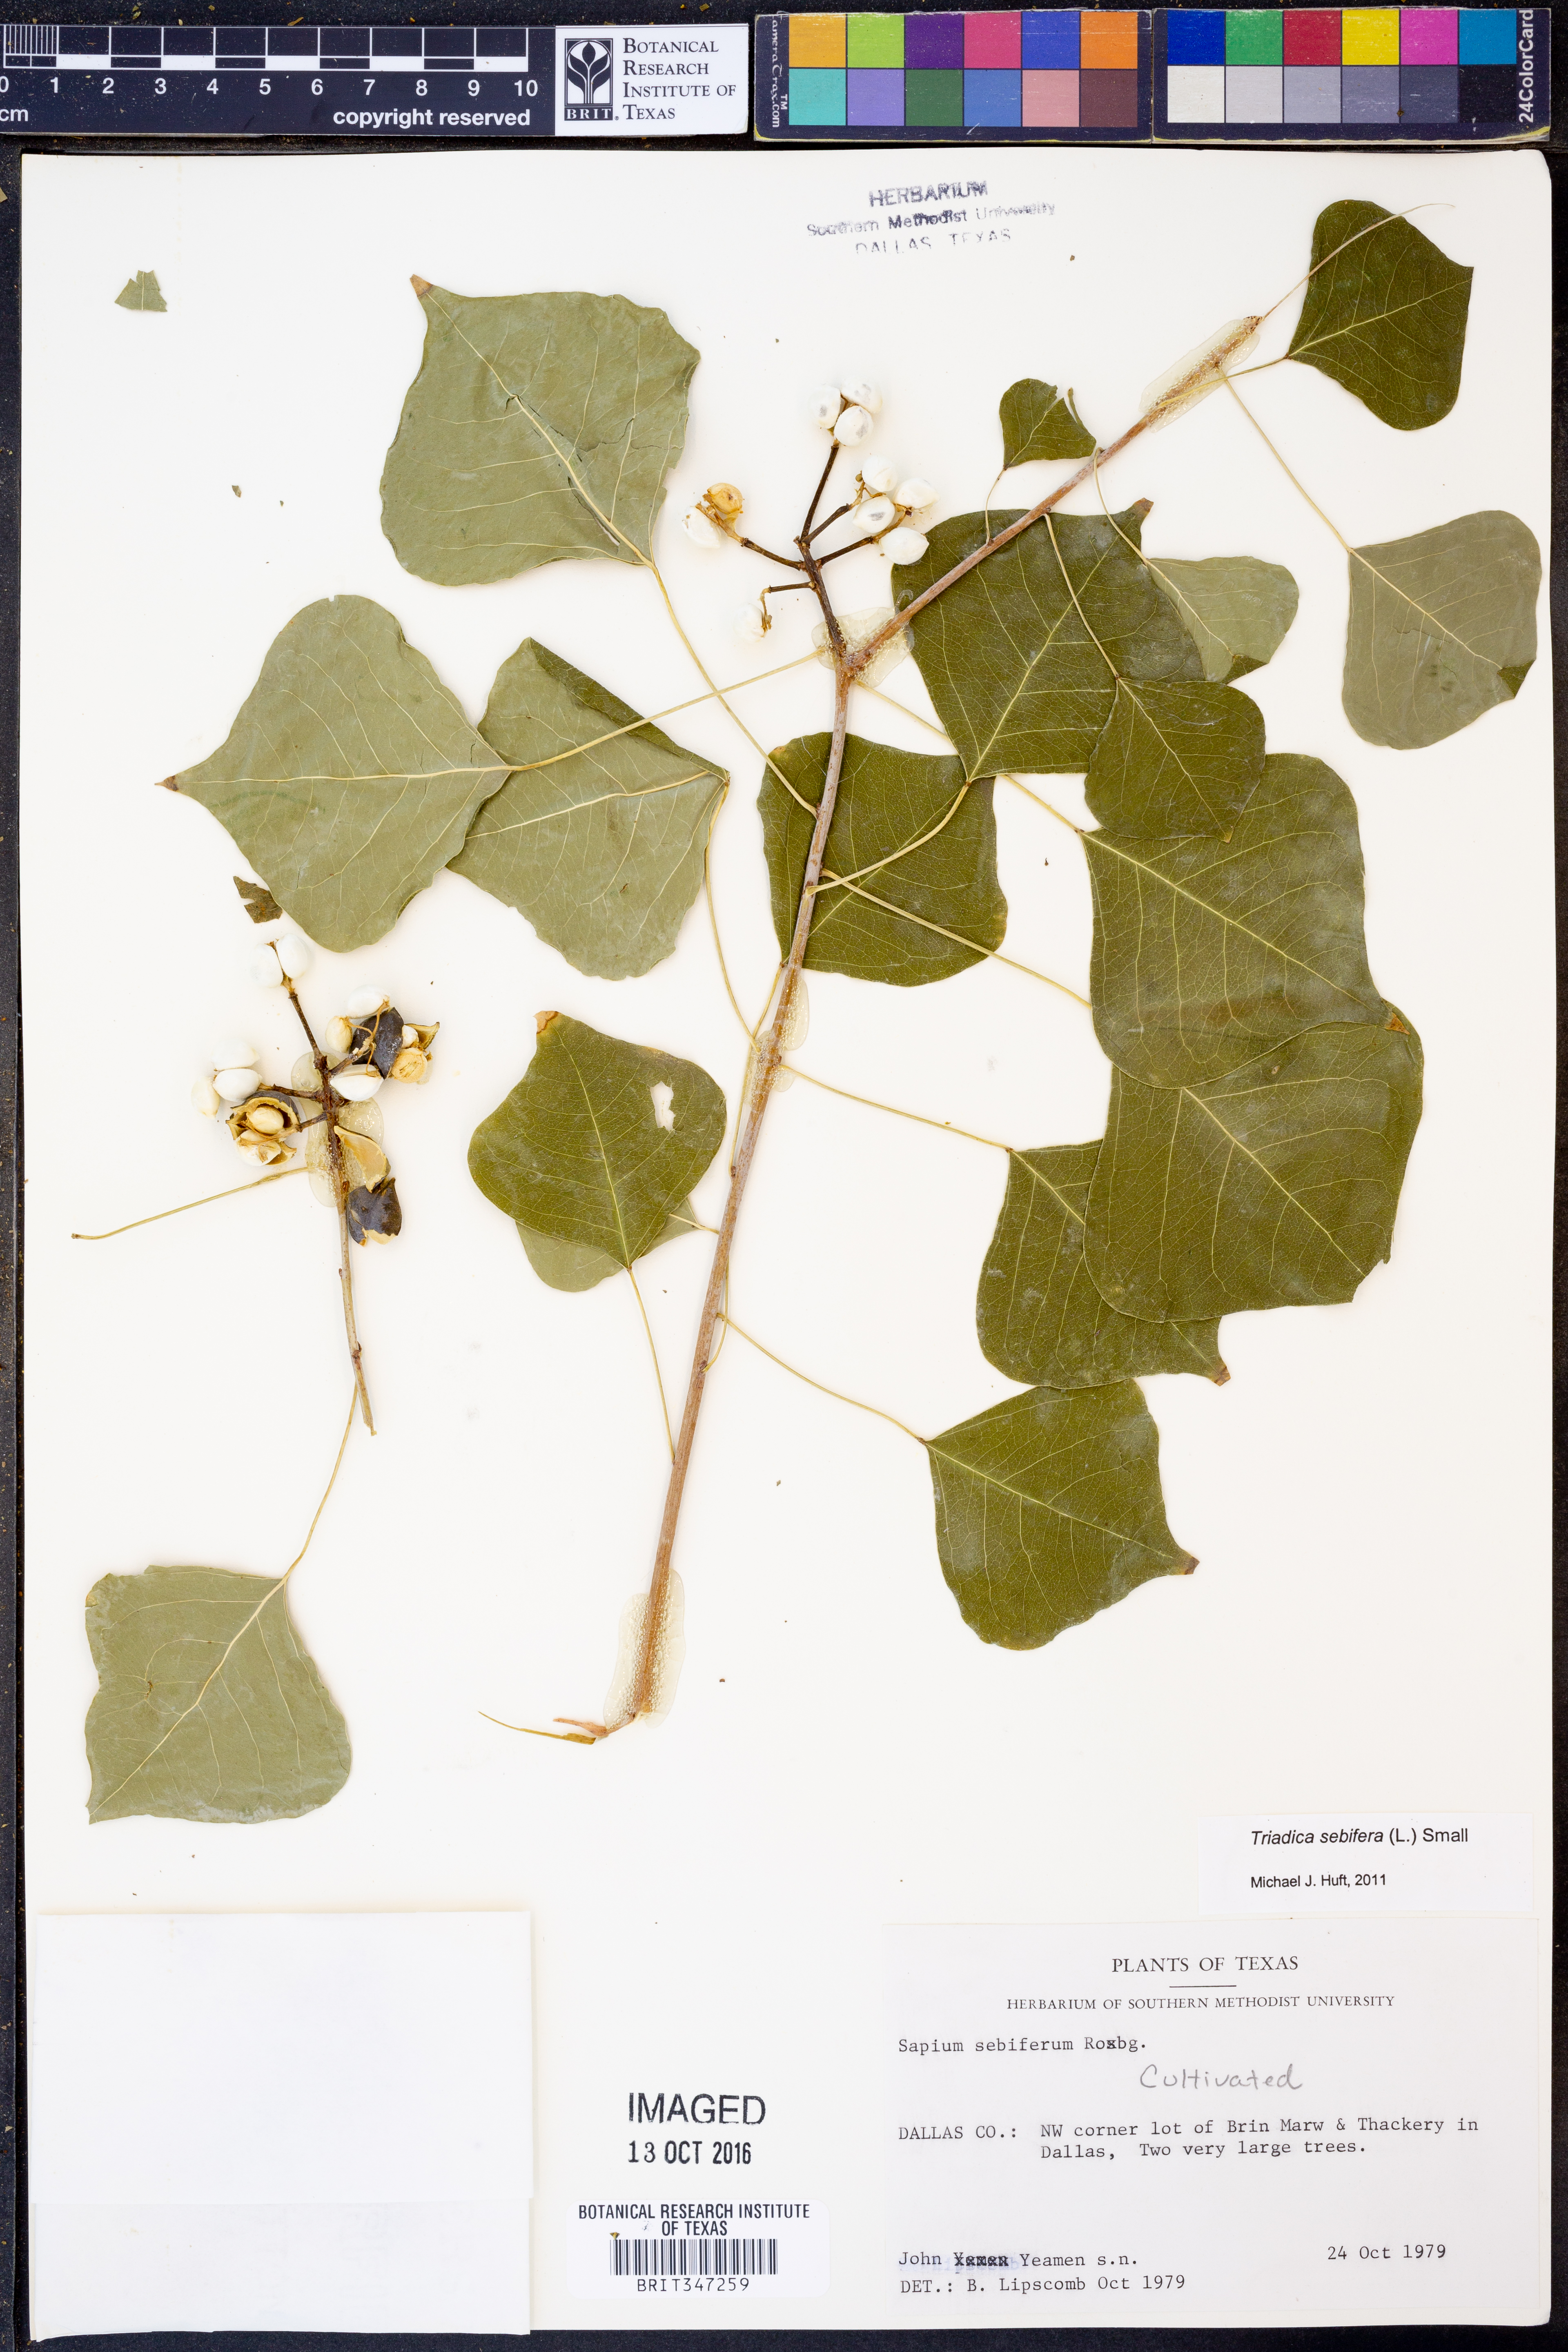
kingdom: Plantae
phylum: Tracheophyta
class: Magnoliopsida
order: Malpighiales
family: Euphorbiaceae
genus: Triadica
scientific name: Triadica sebifera
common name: Chinese tallow
